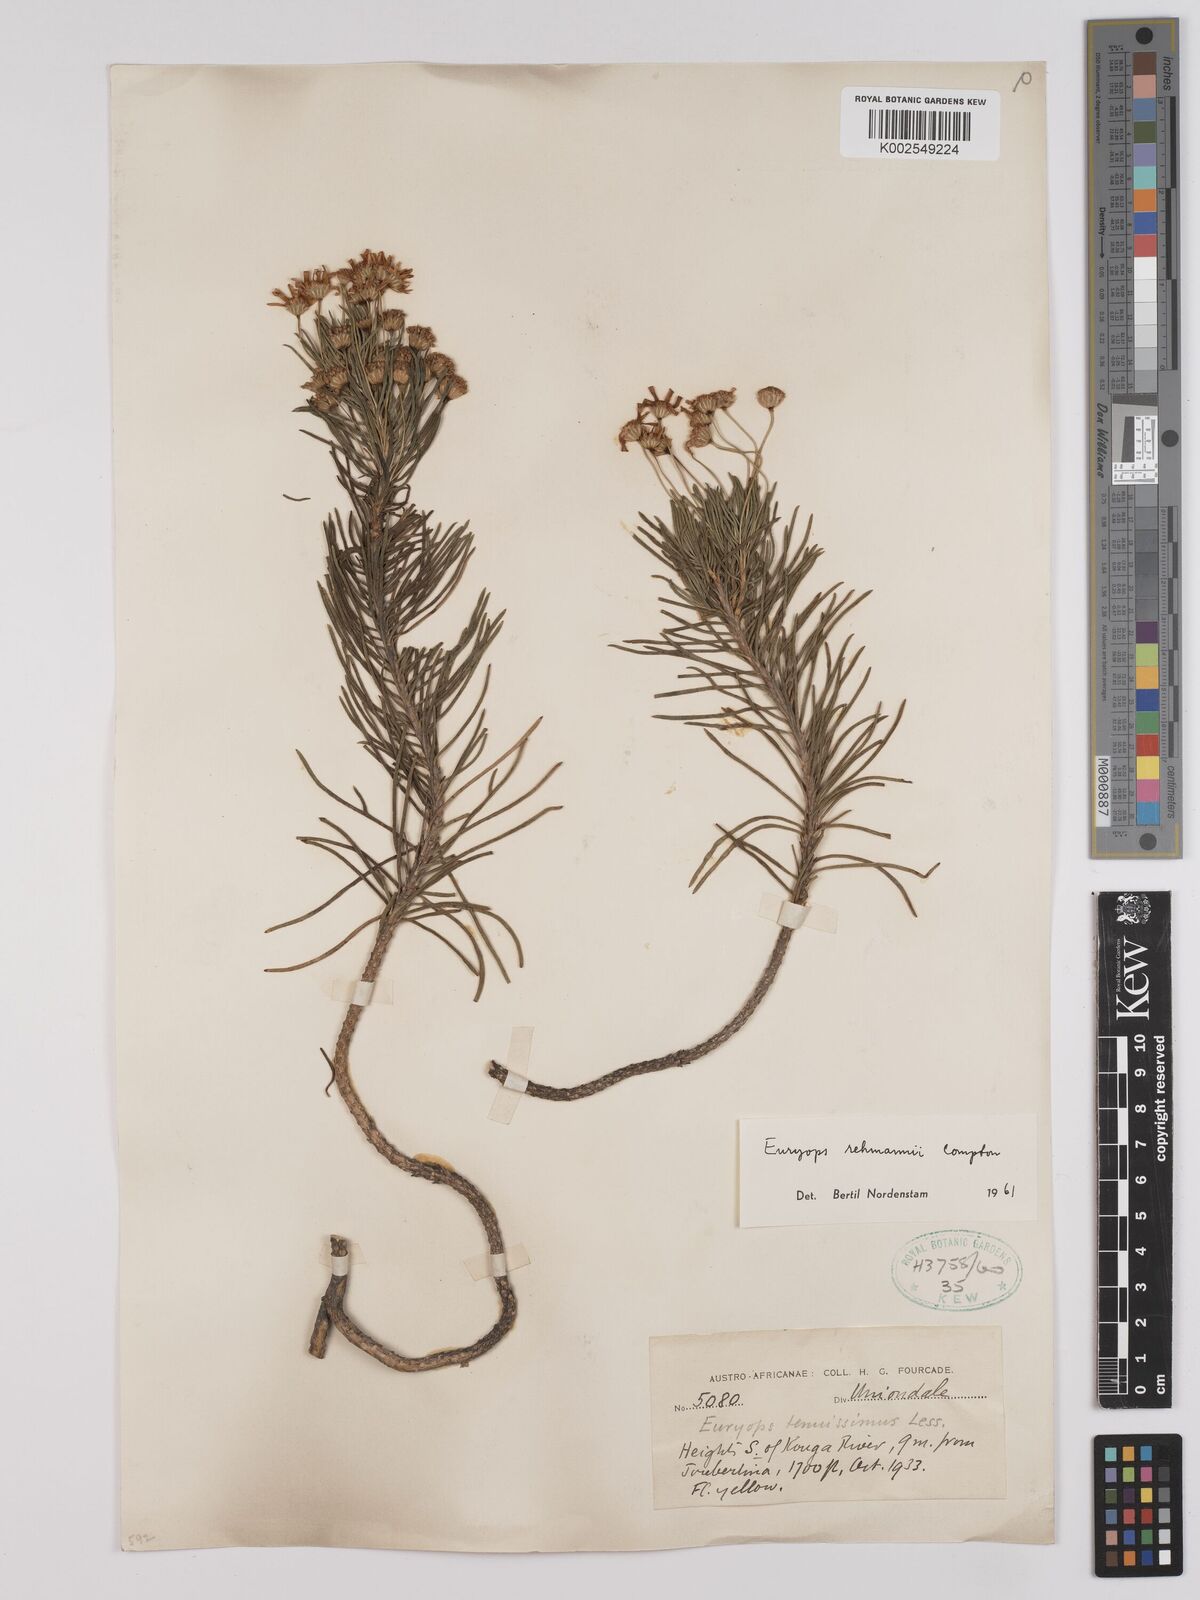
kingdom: Plantae
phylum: Tracheophyta
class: Magnoliopsida
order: Asterales
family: Asteraceae
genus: Euryops
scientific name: Euryops rehmannii
